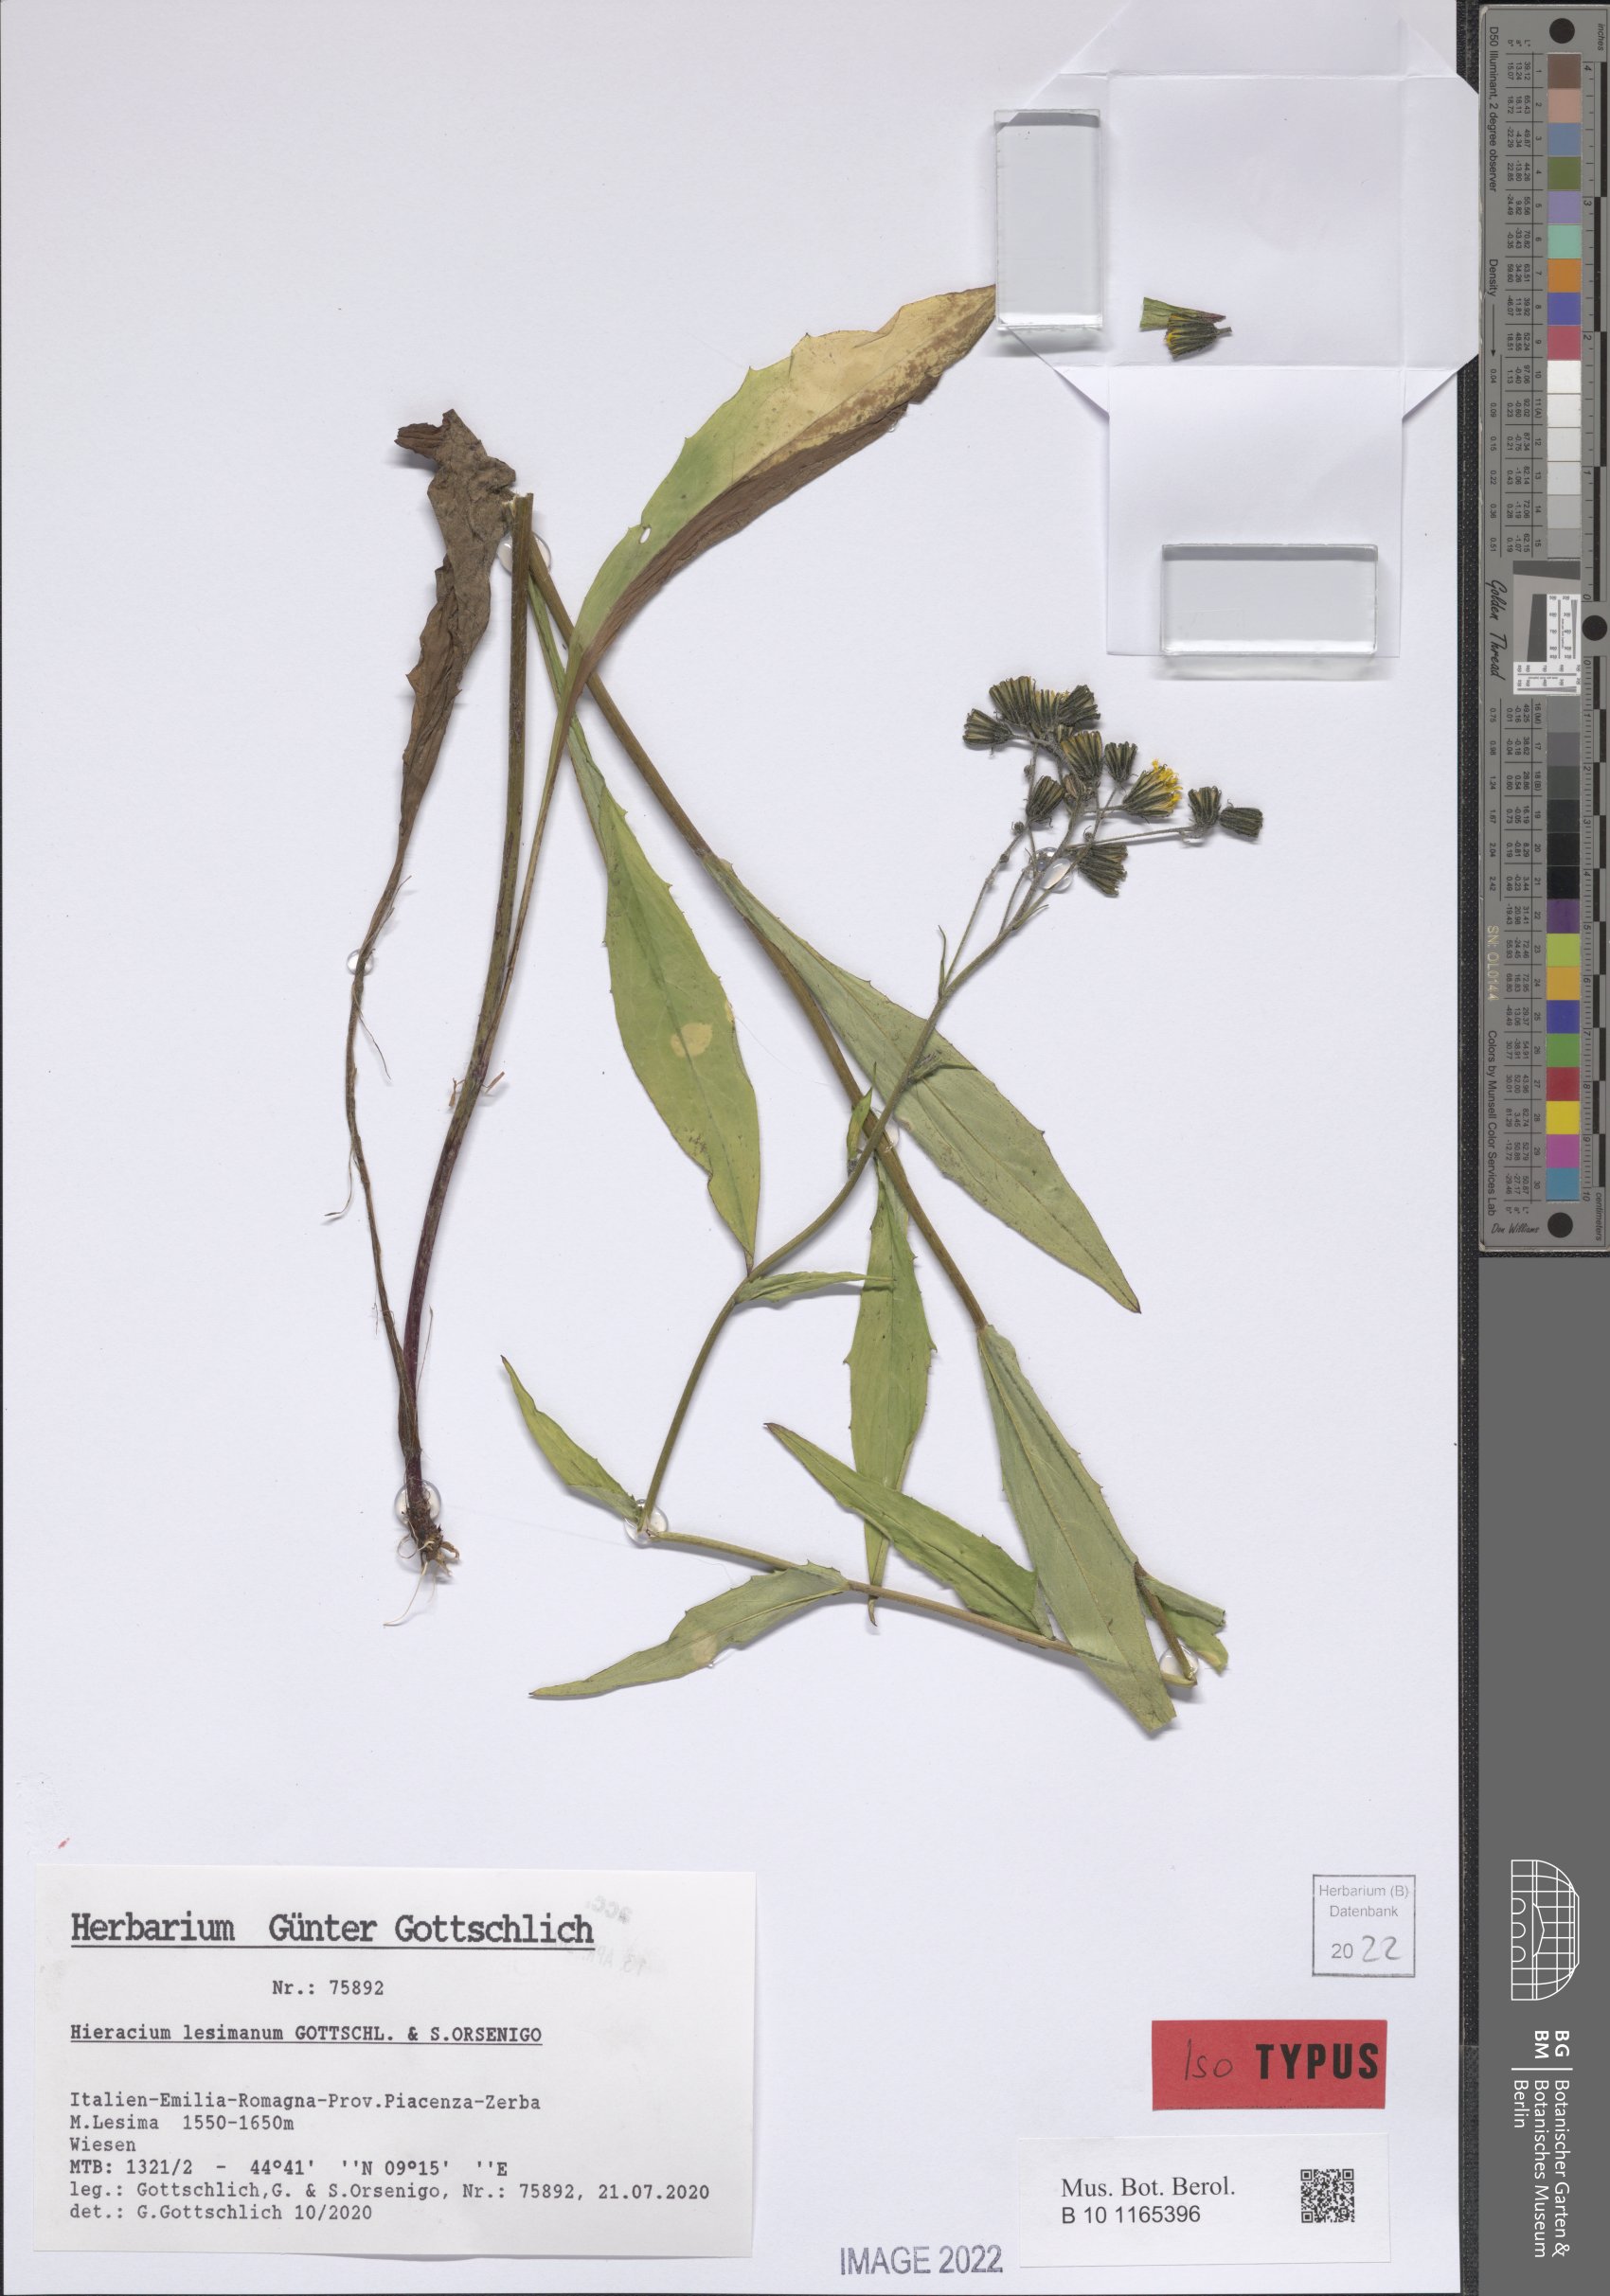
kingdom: Plantae
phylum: Tracheophyta
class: Magnoliopsida
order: Asterales
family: Asteraceae
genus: Hieracium
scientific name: Hieracium lesimanum
